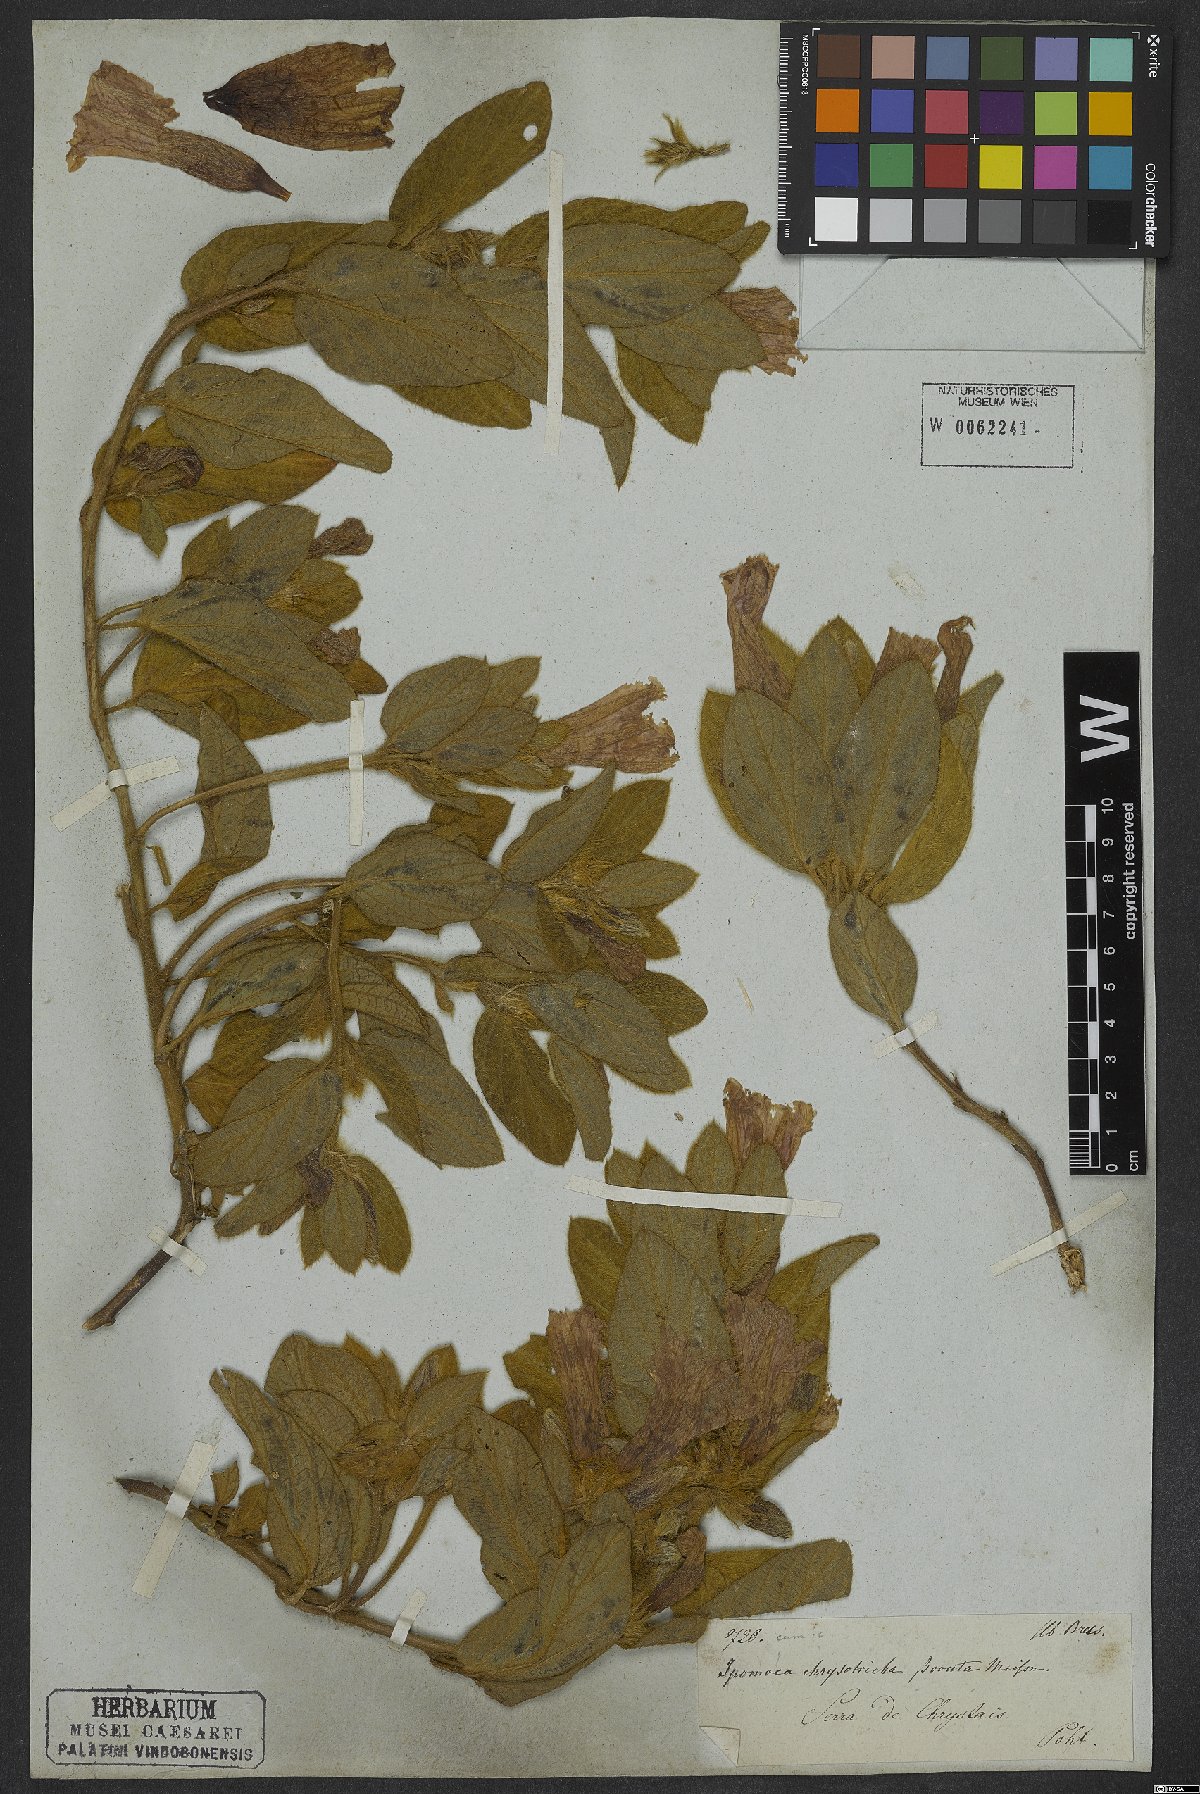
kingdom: Plantae
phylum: Tracheophyta
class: Magnoliopsida
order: Solanales
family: Convolvulaceae
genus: Ipomoea
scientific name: Ipomoea hirsutissima
